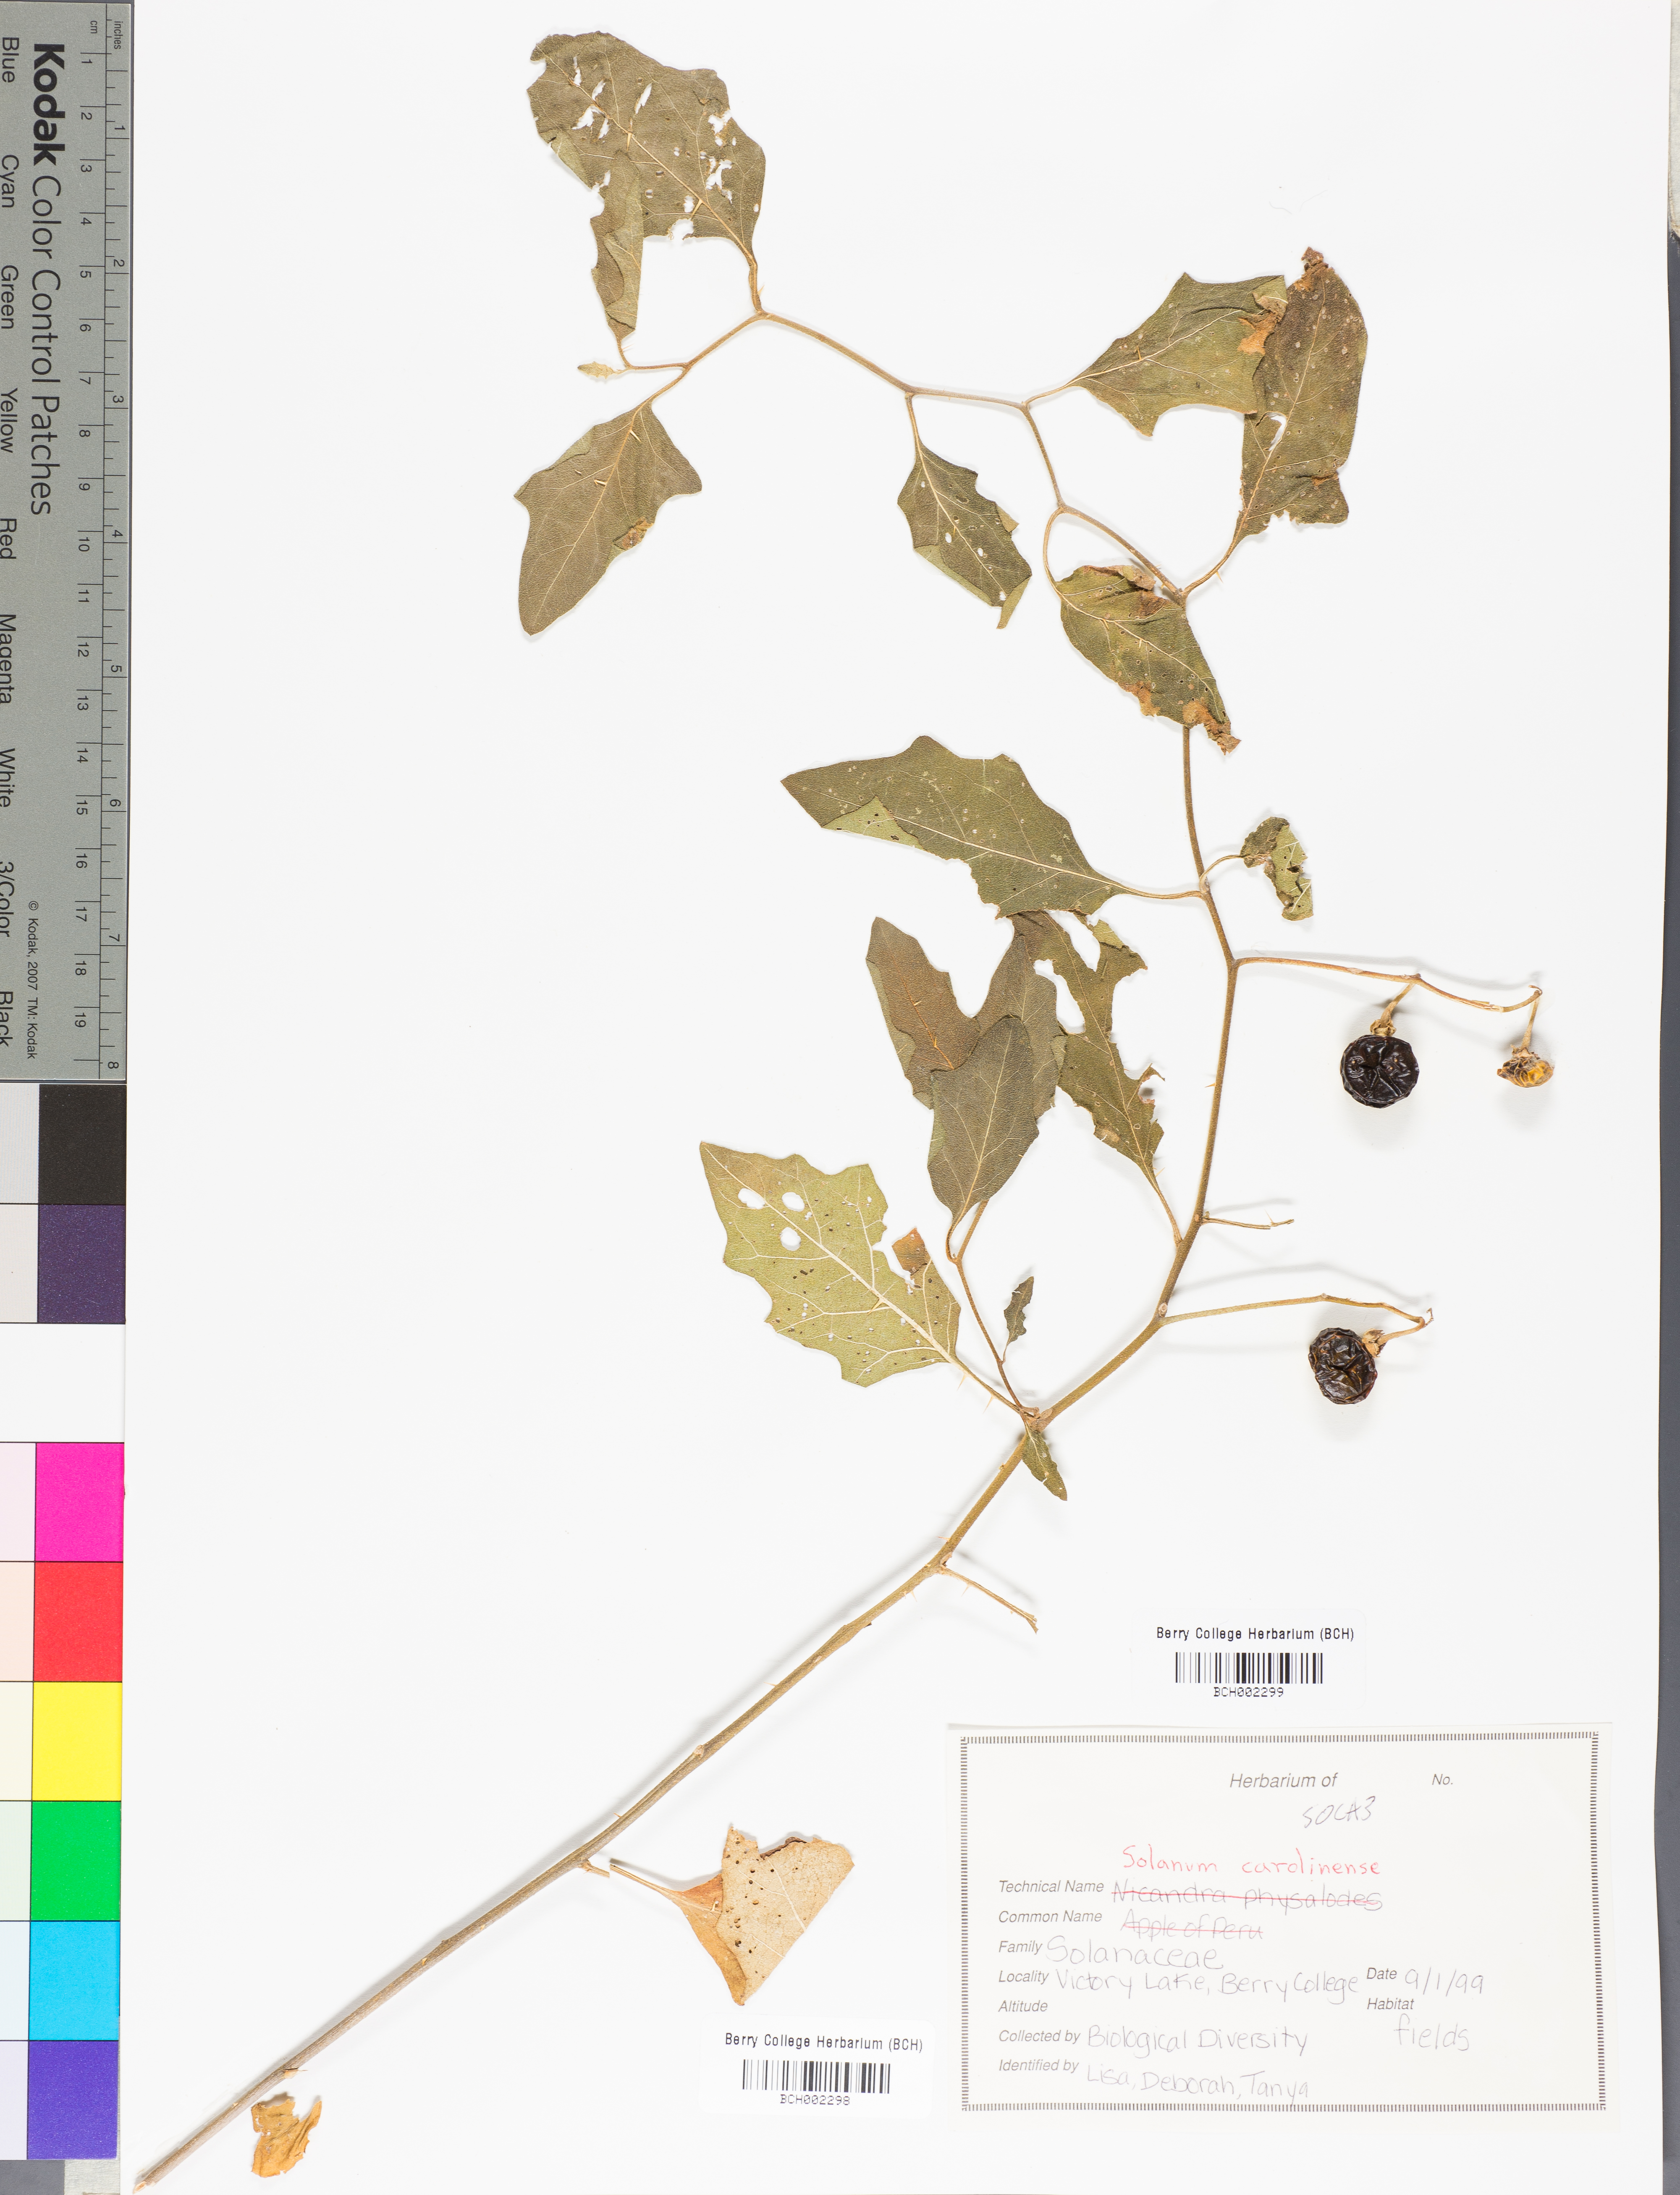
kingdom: Plantae
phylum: Tracheophyta
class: Magnoliopsida
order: Solanales
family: Solanaceae
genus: Solanum
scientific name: Solanum carolinense
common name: Horse-nettle
